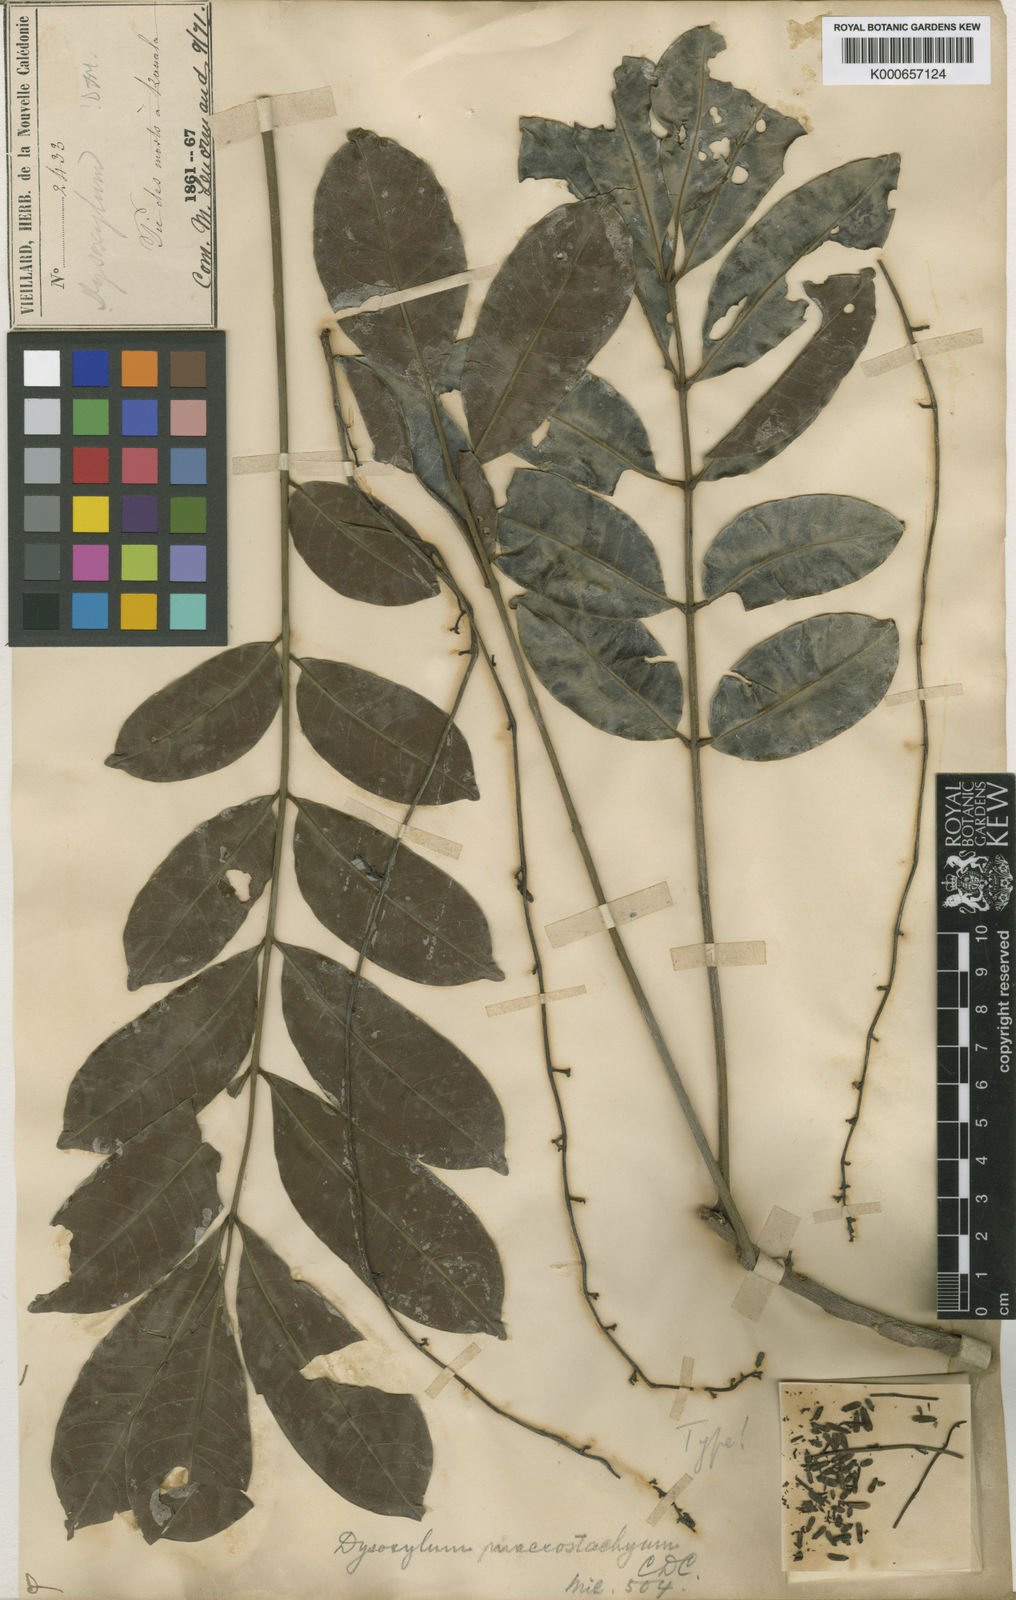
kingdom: Plantae
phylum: Tracheophyta
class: Magnoliopsida
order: Sapindales
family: Meliaceae
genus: Didymocheton
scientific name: Didymocheton macrostachyus
